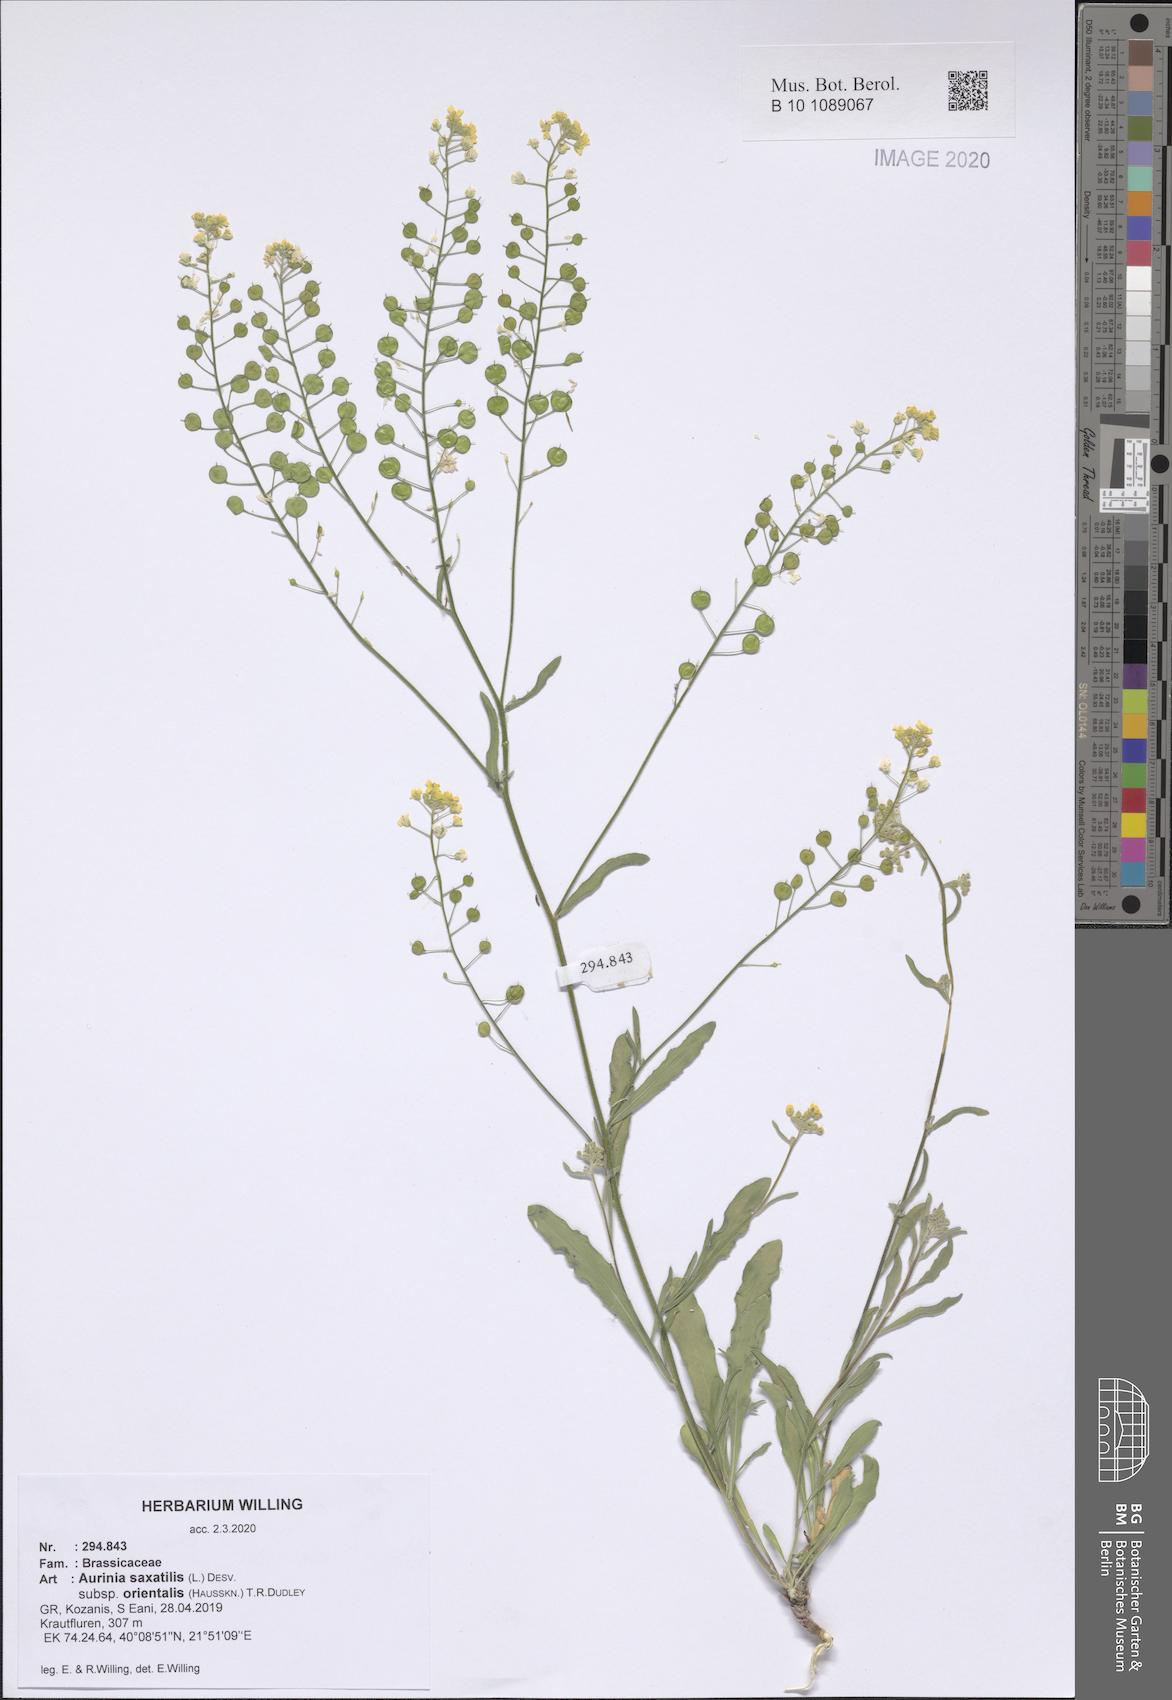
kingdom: Plantae
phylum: Tracheophyta
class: Magnoliopsida
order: Brassicales
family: Brassicaceae
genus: Aurinia
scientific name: Aurinia saxatilis
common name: Golden-tuft alyssum
